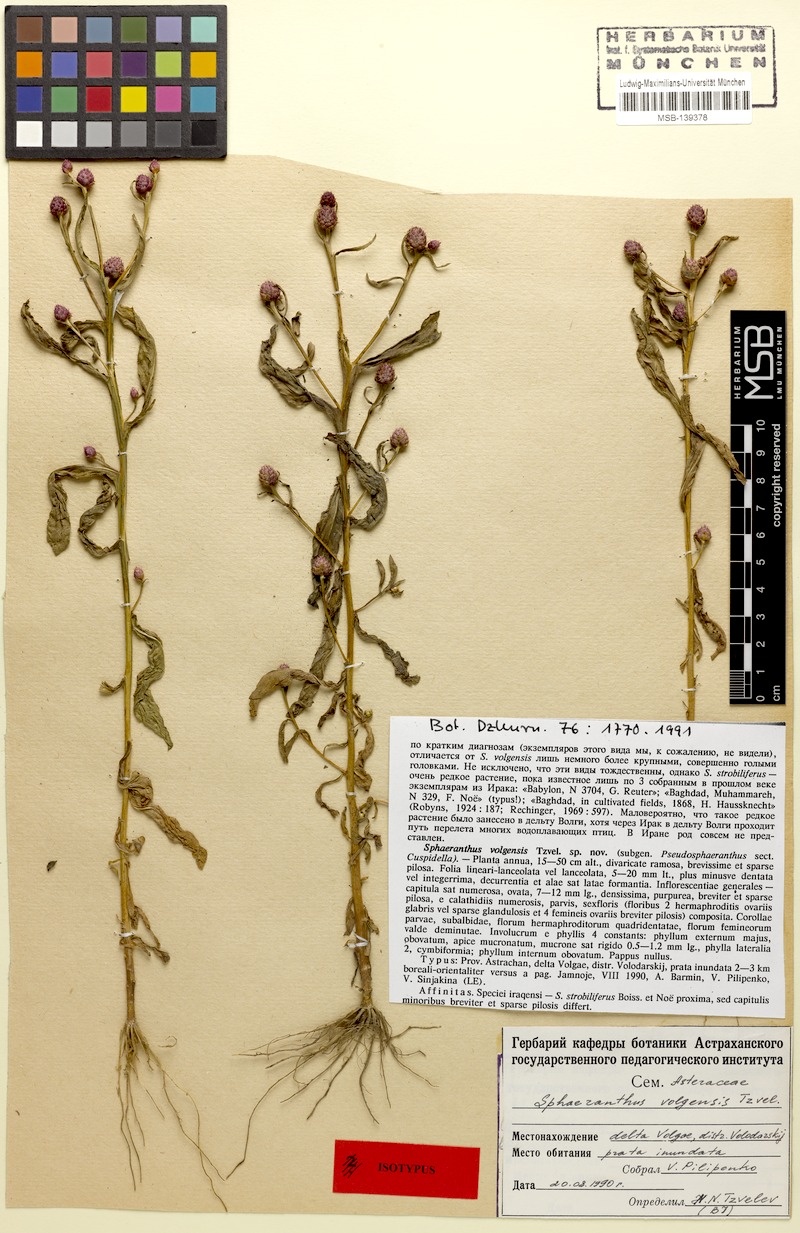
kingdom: Plantae
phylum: Tracheophyta
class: Magnoliopsida
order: Asterales
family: Asteraceae
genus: Sphaeranthus
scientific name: Sphaeranthus strobiliferus
